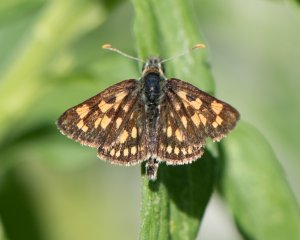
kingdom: Animalia
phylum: Arthropoda
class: Insecta
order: Lepidoptera
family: Hesperiidae
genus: Carterocephalus
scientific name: Carterocephalus palaemon
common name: Chequered Skipper
